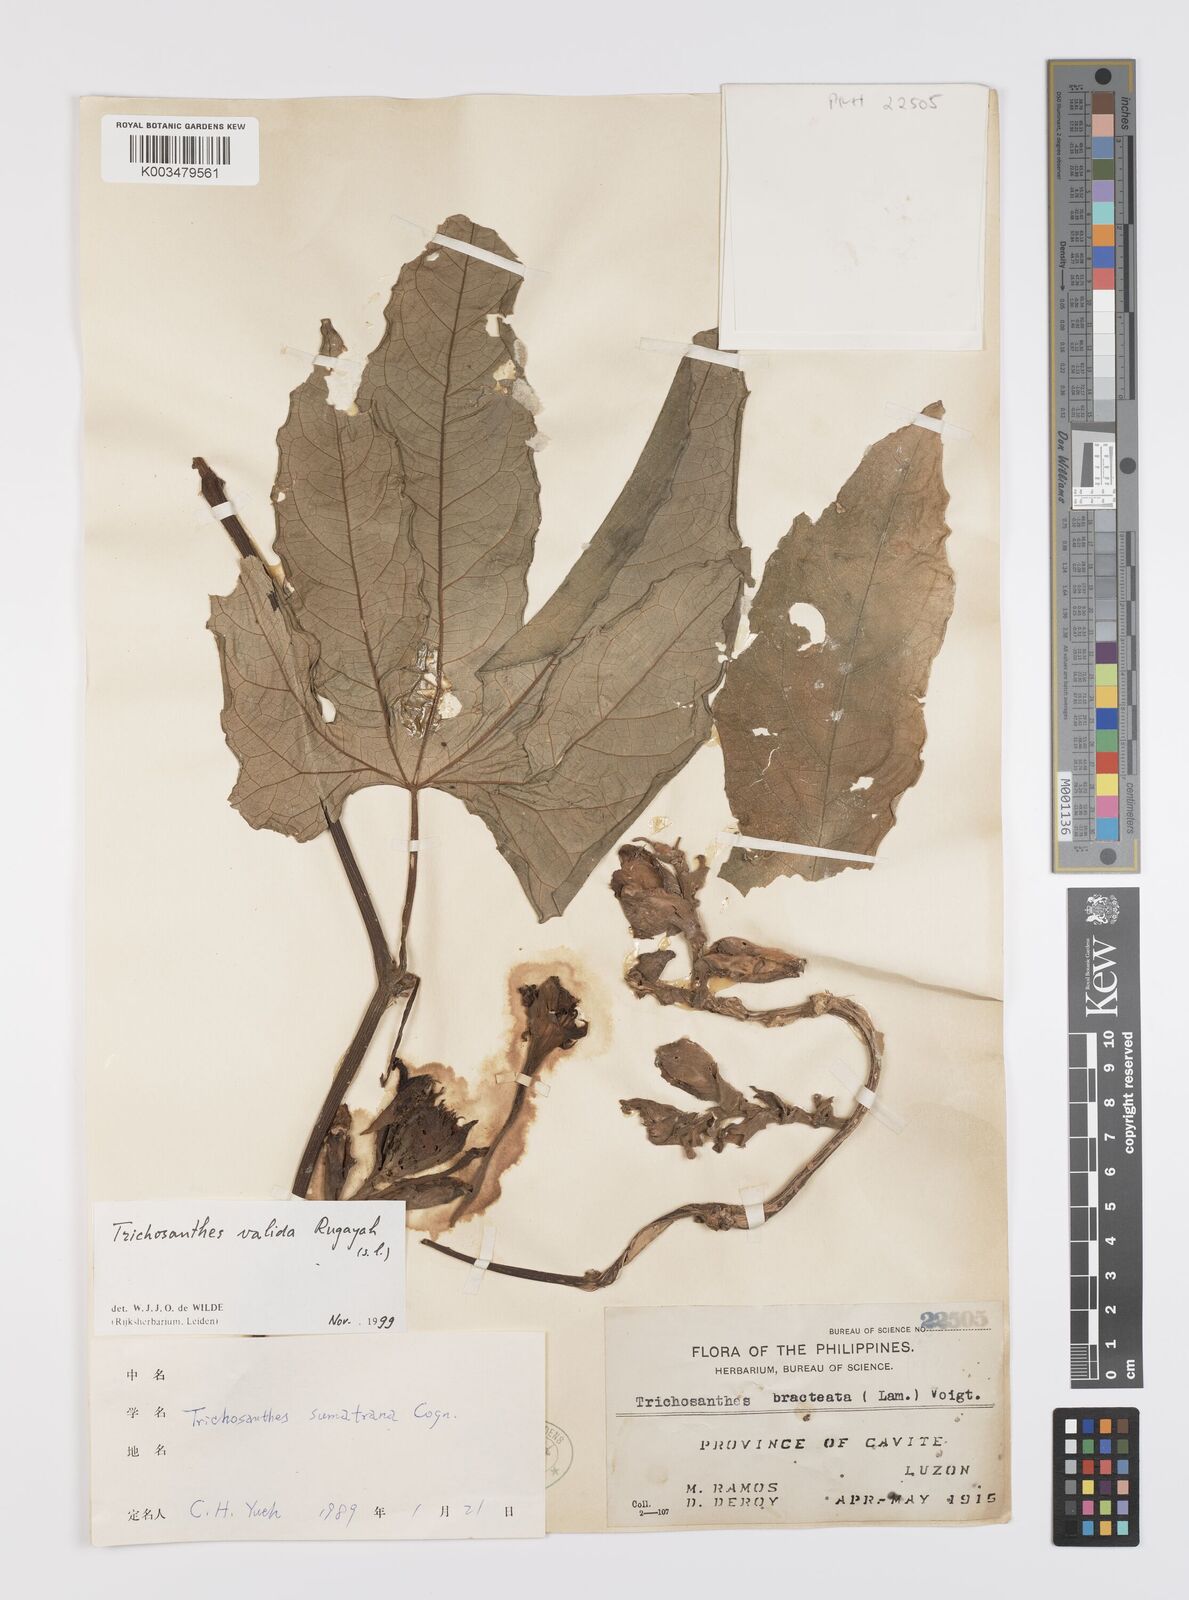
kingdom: Plantae
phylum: Tracheophyta
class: Magnoliopsida
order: Cucurbitales
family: Cucurbitaceae
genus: Trichosanthes
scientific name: Trichosanthes valida
